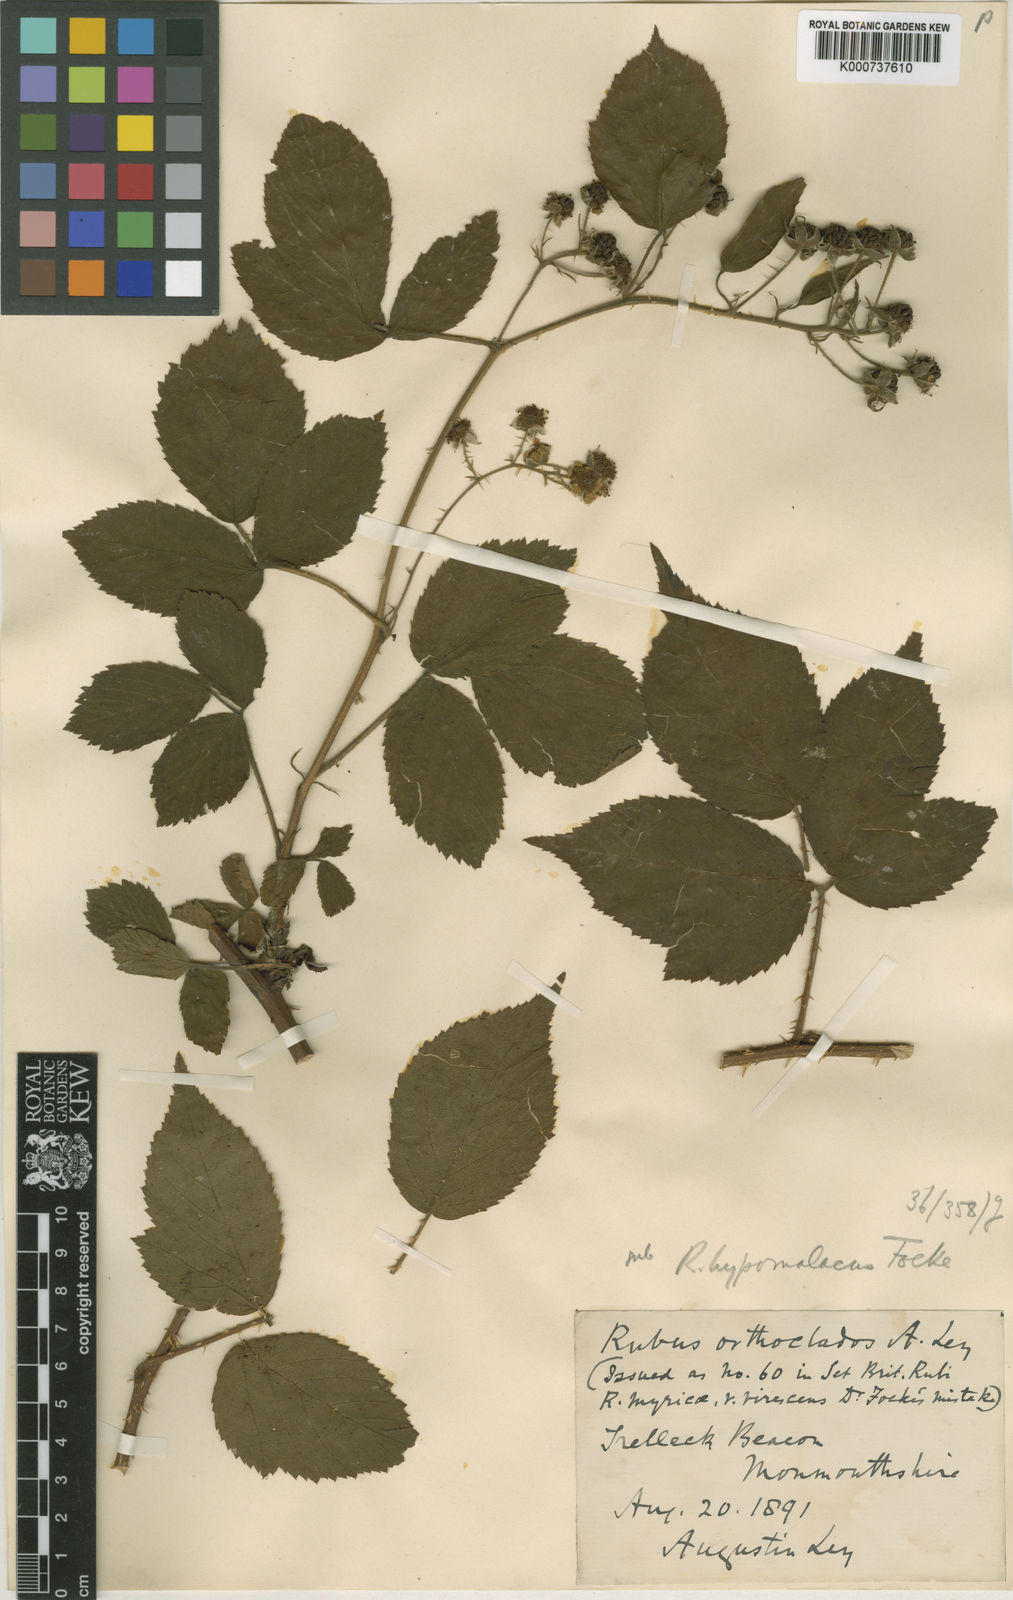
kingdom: Plantae
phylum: Tracheophyta
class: Magnoliopsida
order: Rosales
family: Rosaceae
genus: Rubus
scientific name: Rubus
